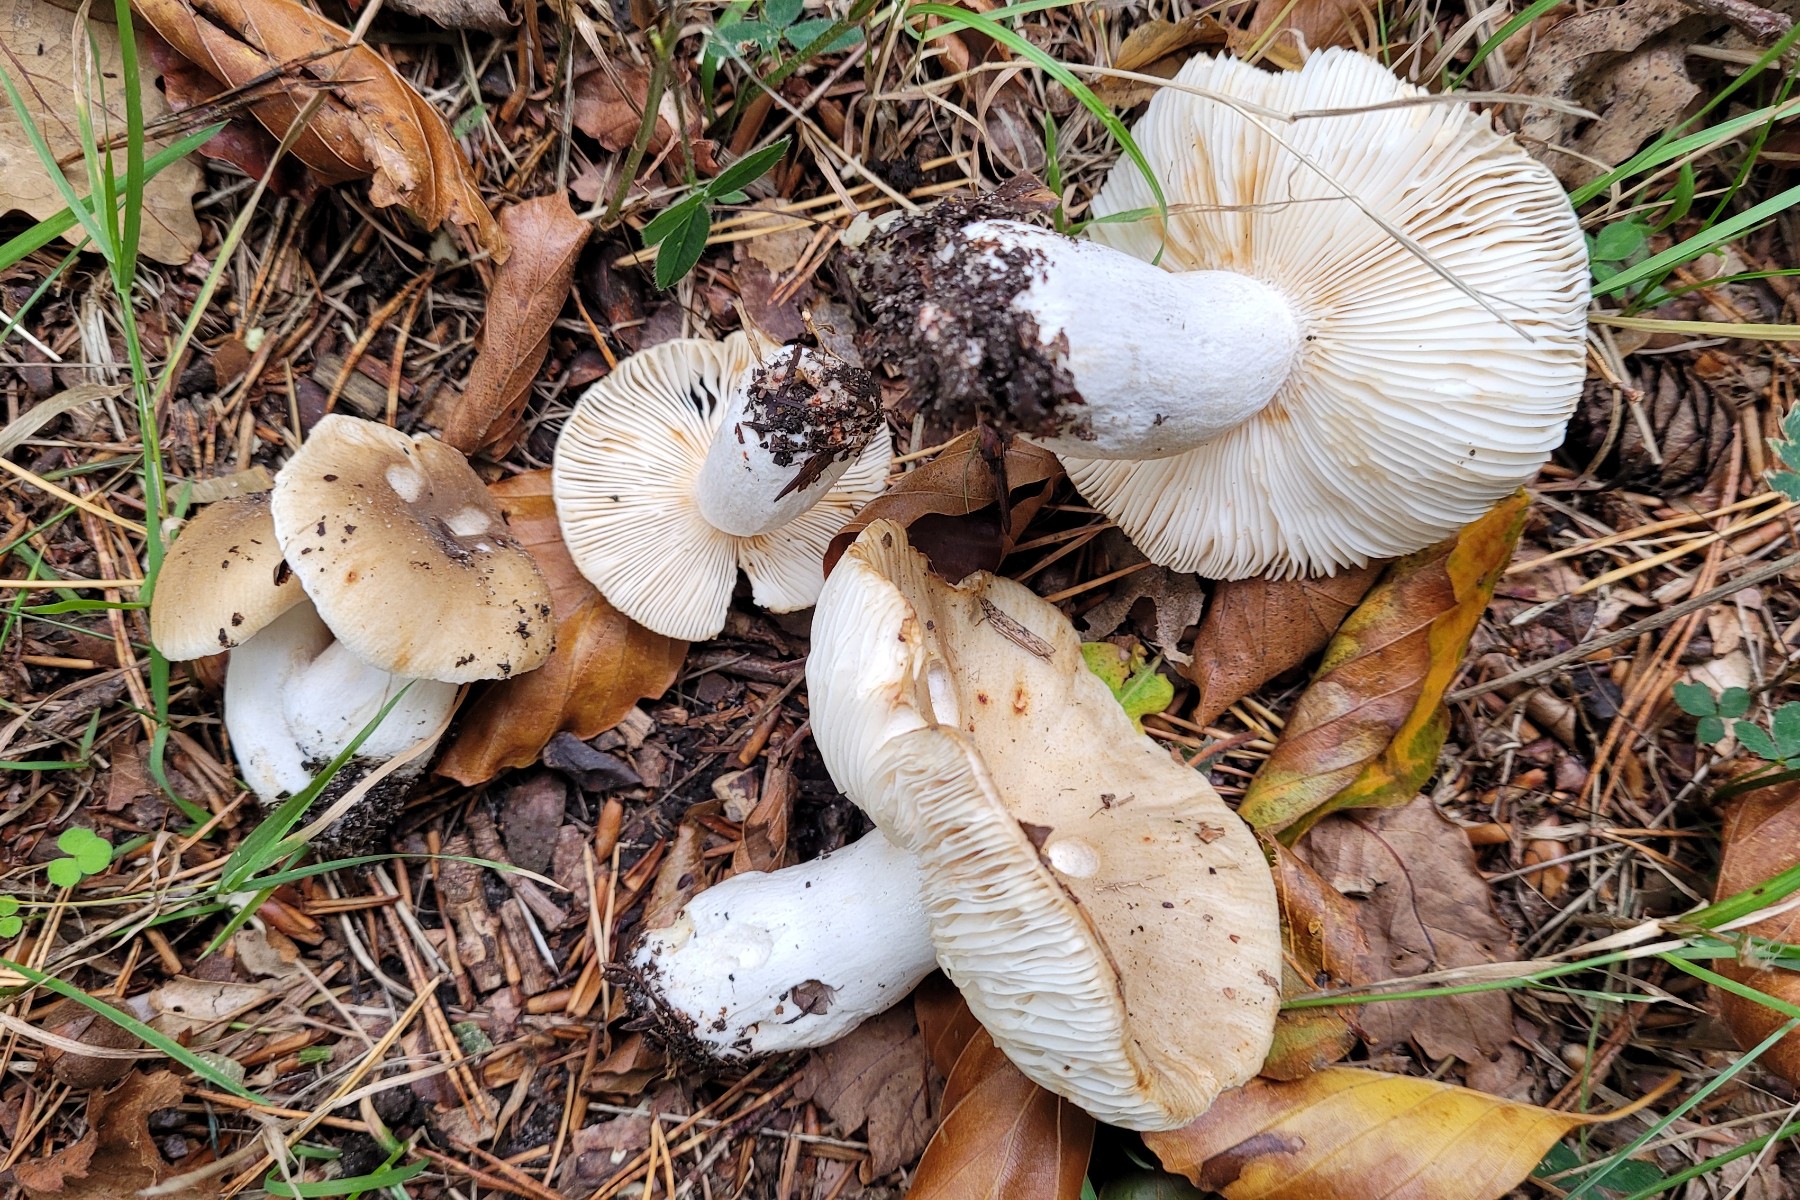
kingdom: Fungi
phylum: Basidiomycota
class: Agaricomycetes
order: Russulales
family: Russulaceae
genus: Russula
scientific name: Russula recondita
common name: mild kam-skørhat
